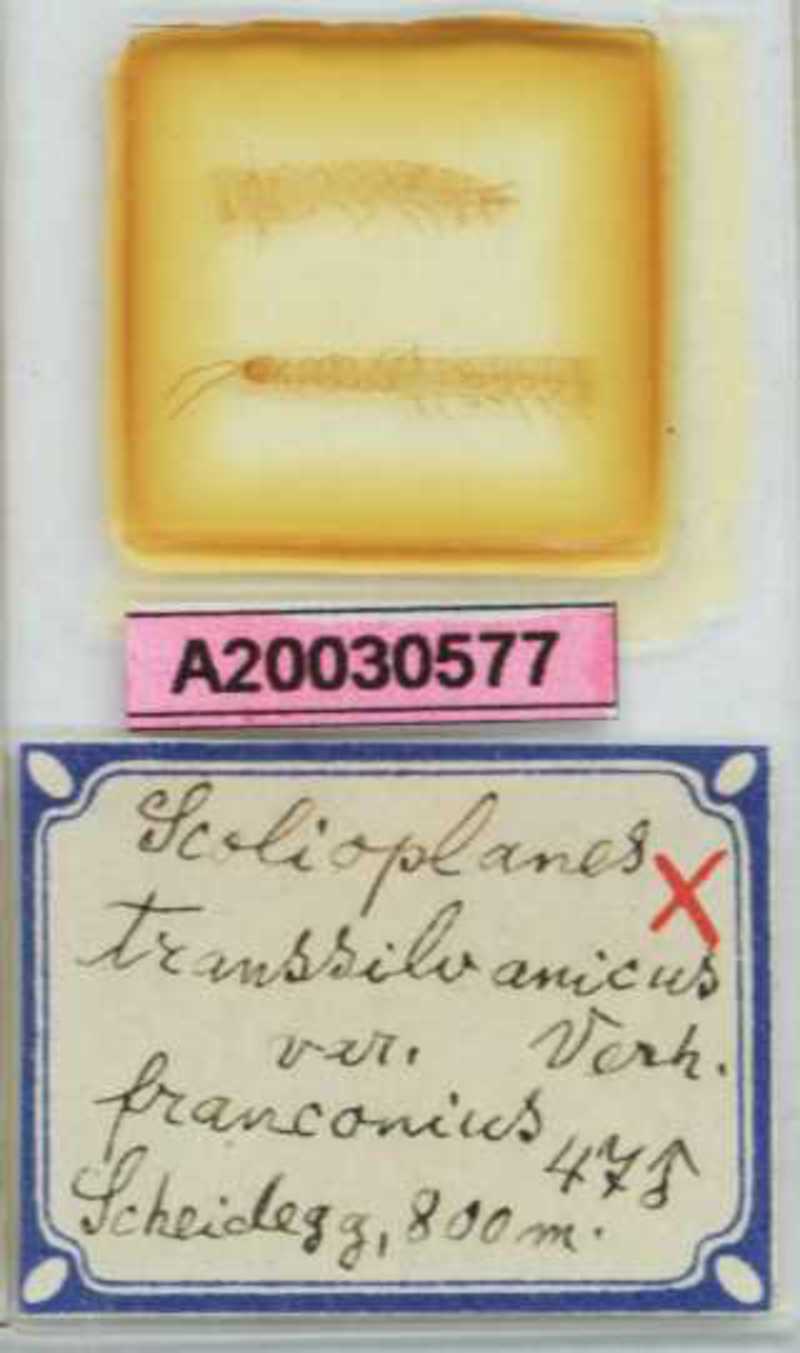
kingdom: Animalia
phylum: Arthropoda
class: Chilopoda
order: Geophilomorpha
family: Linotaeniidae
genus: Strigamia
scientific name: Strigamia transsilvanica
